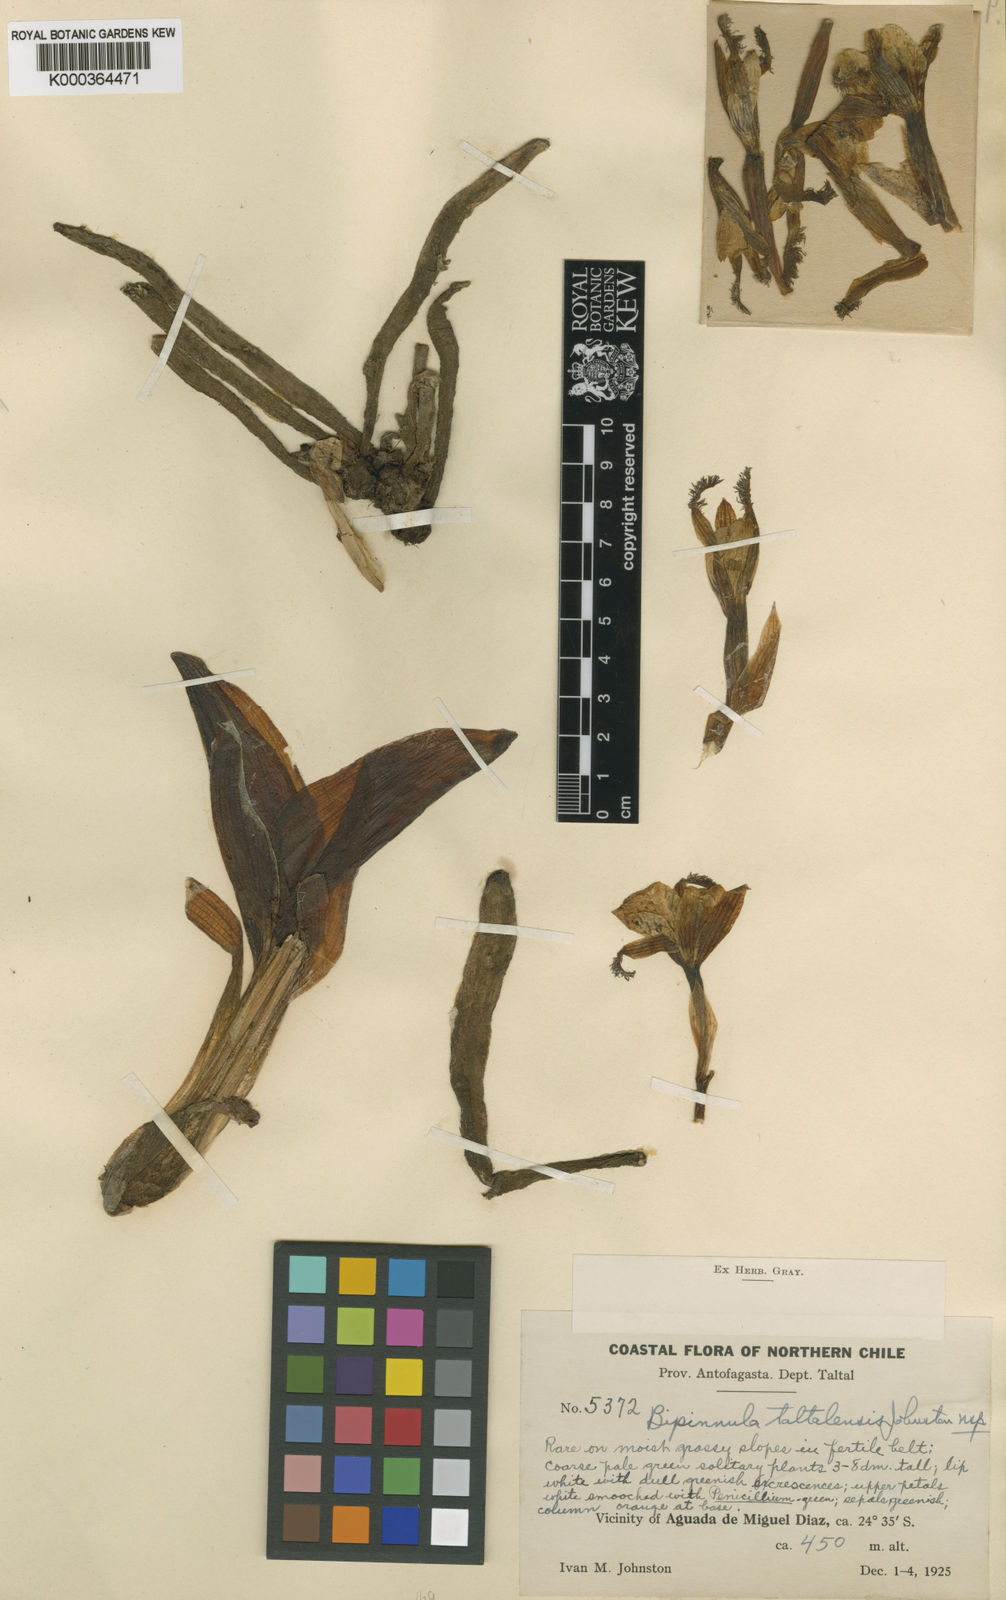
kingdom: Plantae
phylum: Tracheophyta
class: Liliopsida
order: Asparagales
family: Orchidaceae
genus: Bipinnula
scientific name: Bipinnula taltalensis
